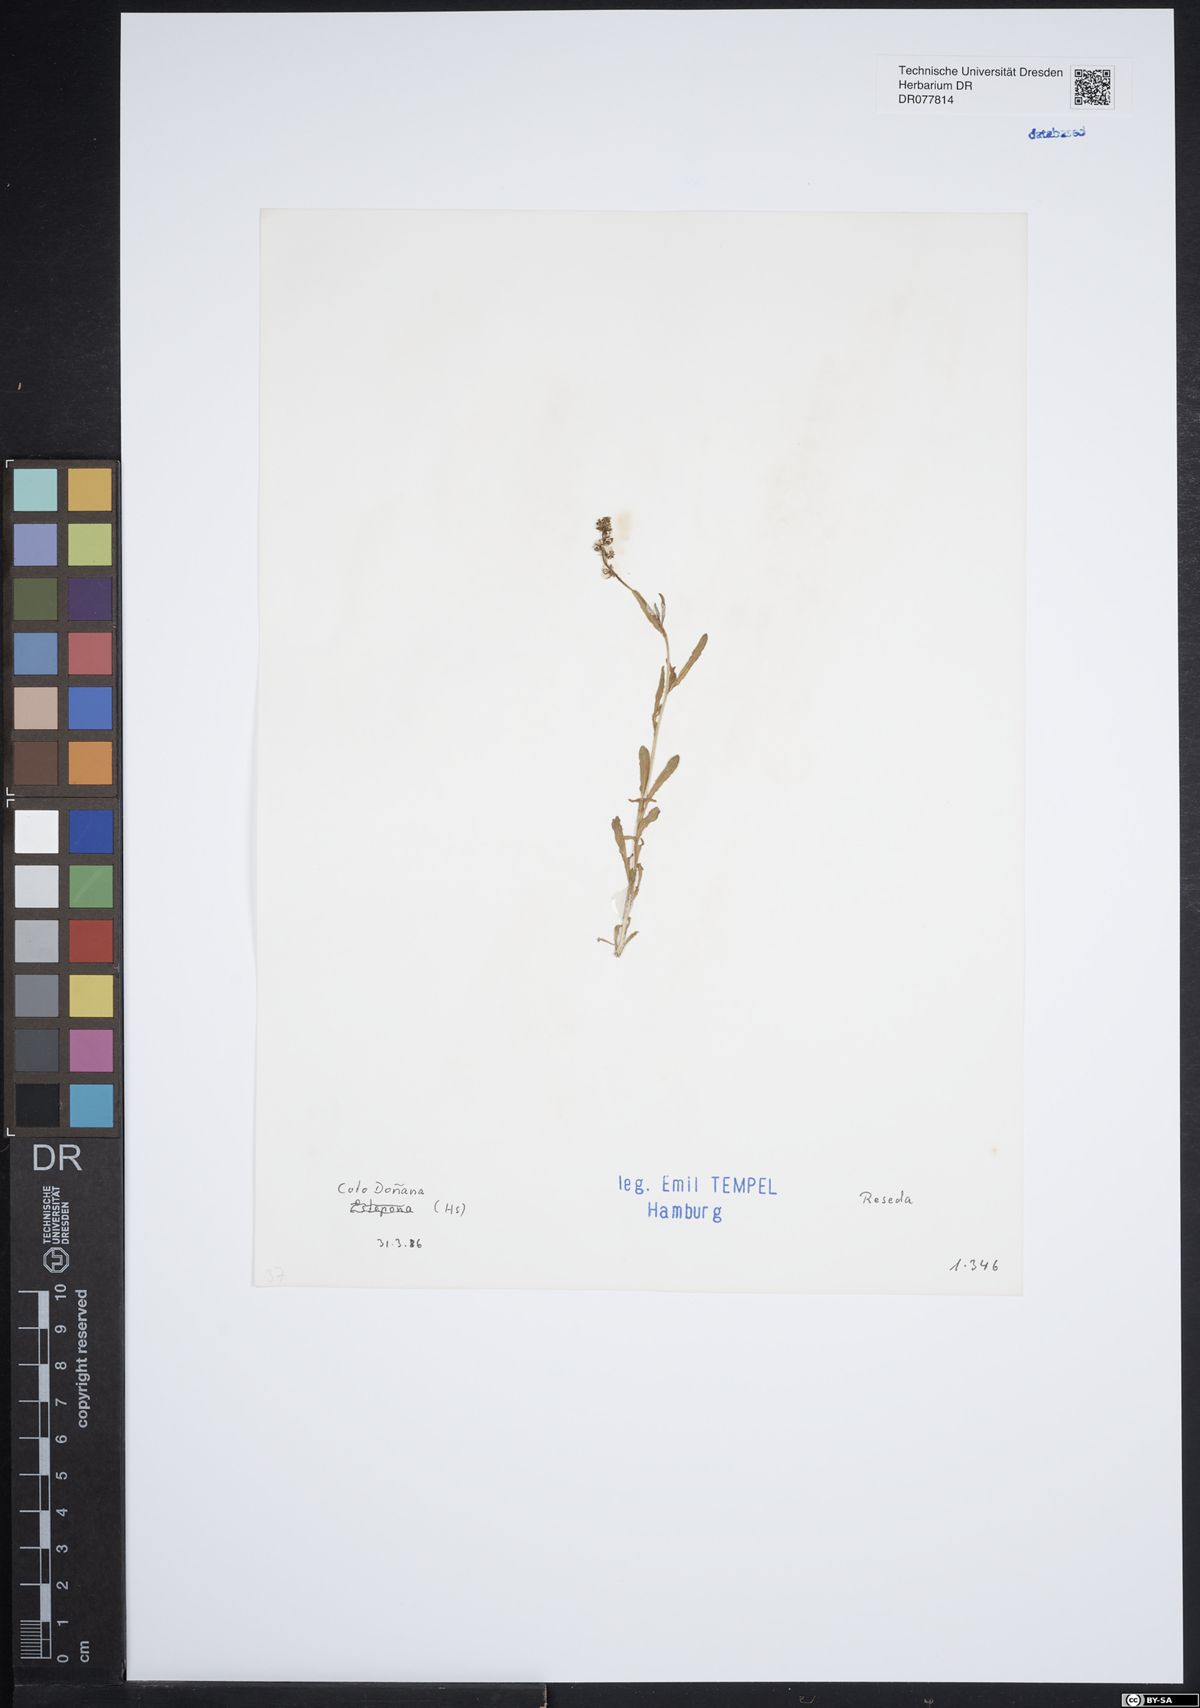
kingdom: Plantae
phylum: Tracheophyta
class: Magnoliopsida
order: Brassicales
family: Resedaceae
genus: Reseda
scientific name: Reseda
